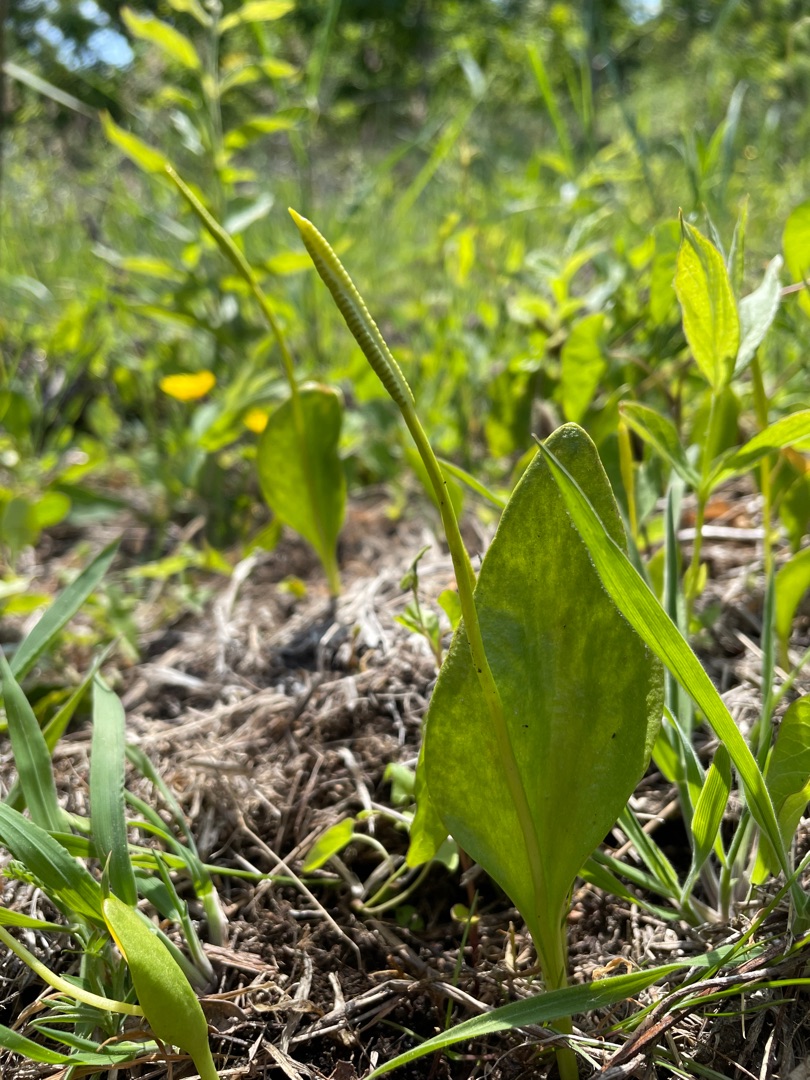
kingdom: Plantae
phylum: Tracheophyta
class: Polypodiopsida
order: Ophioglossales
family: Ophioglossaceae
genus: Ophioglossum
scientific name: Ophioglossum vulgatum
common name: Slangetunge
